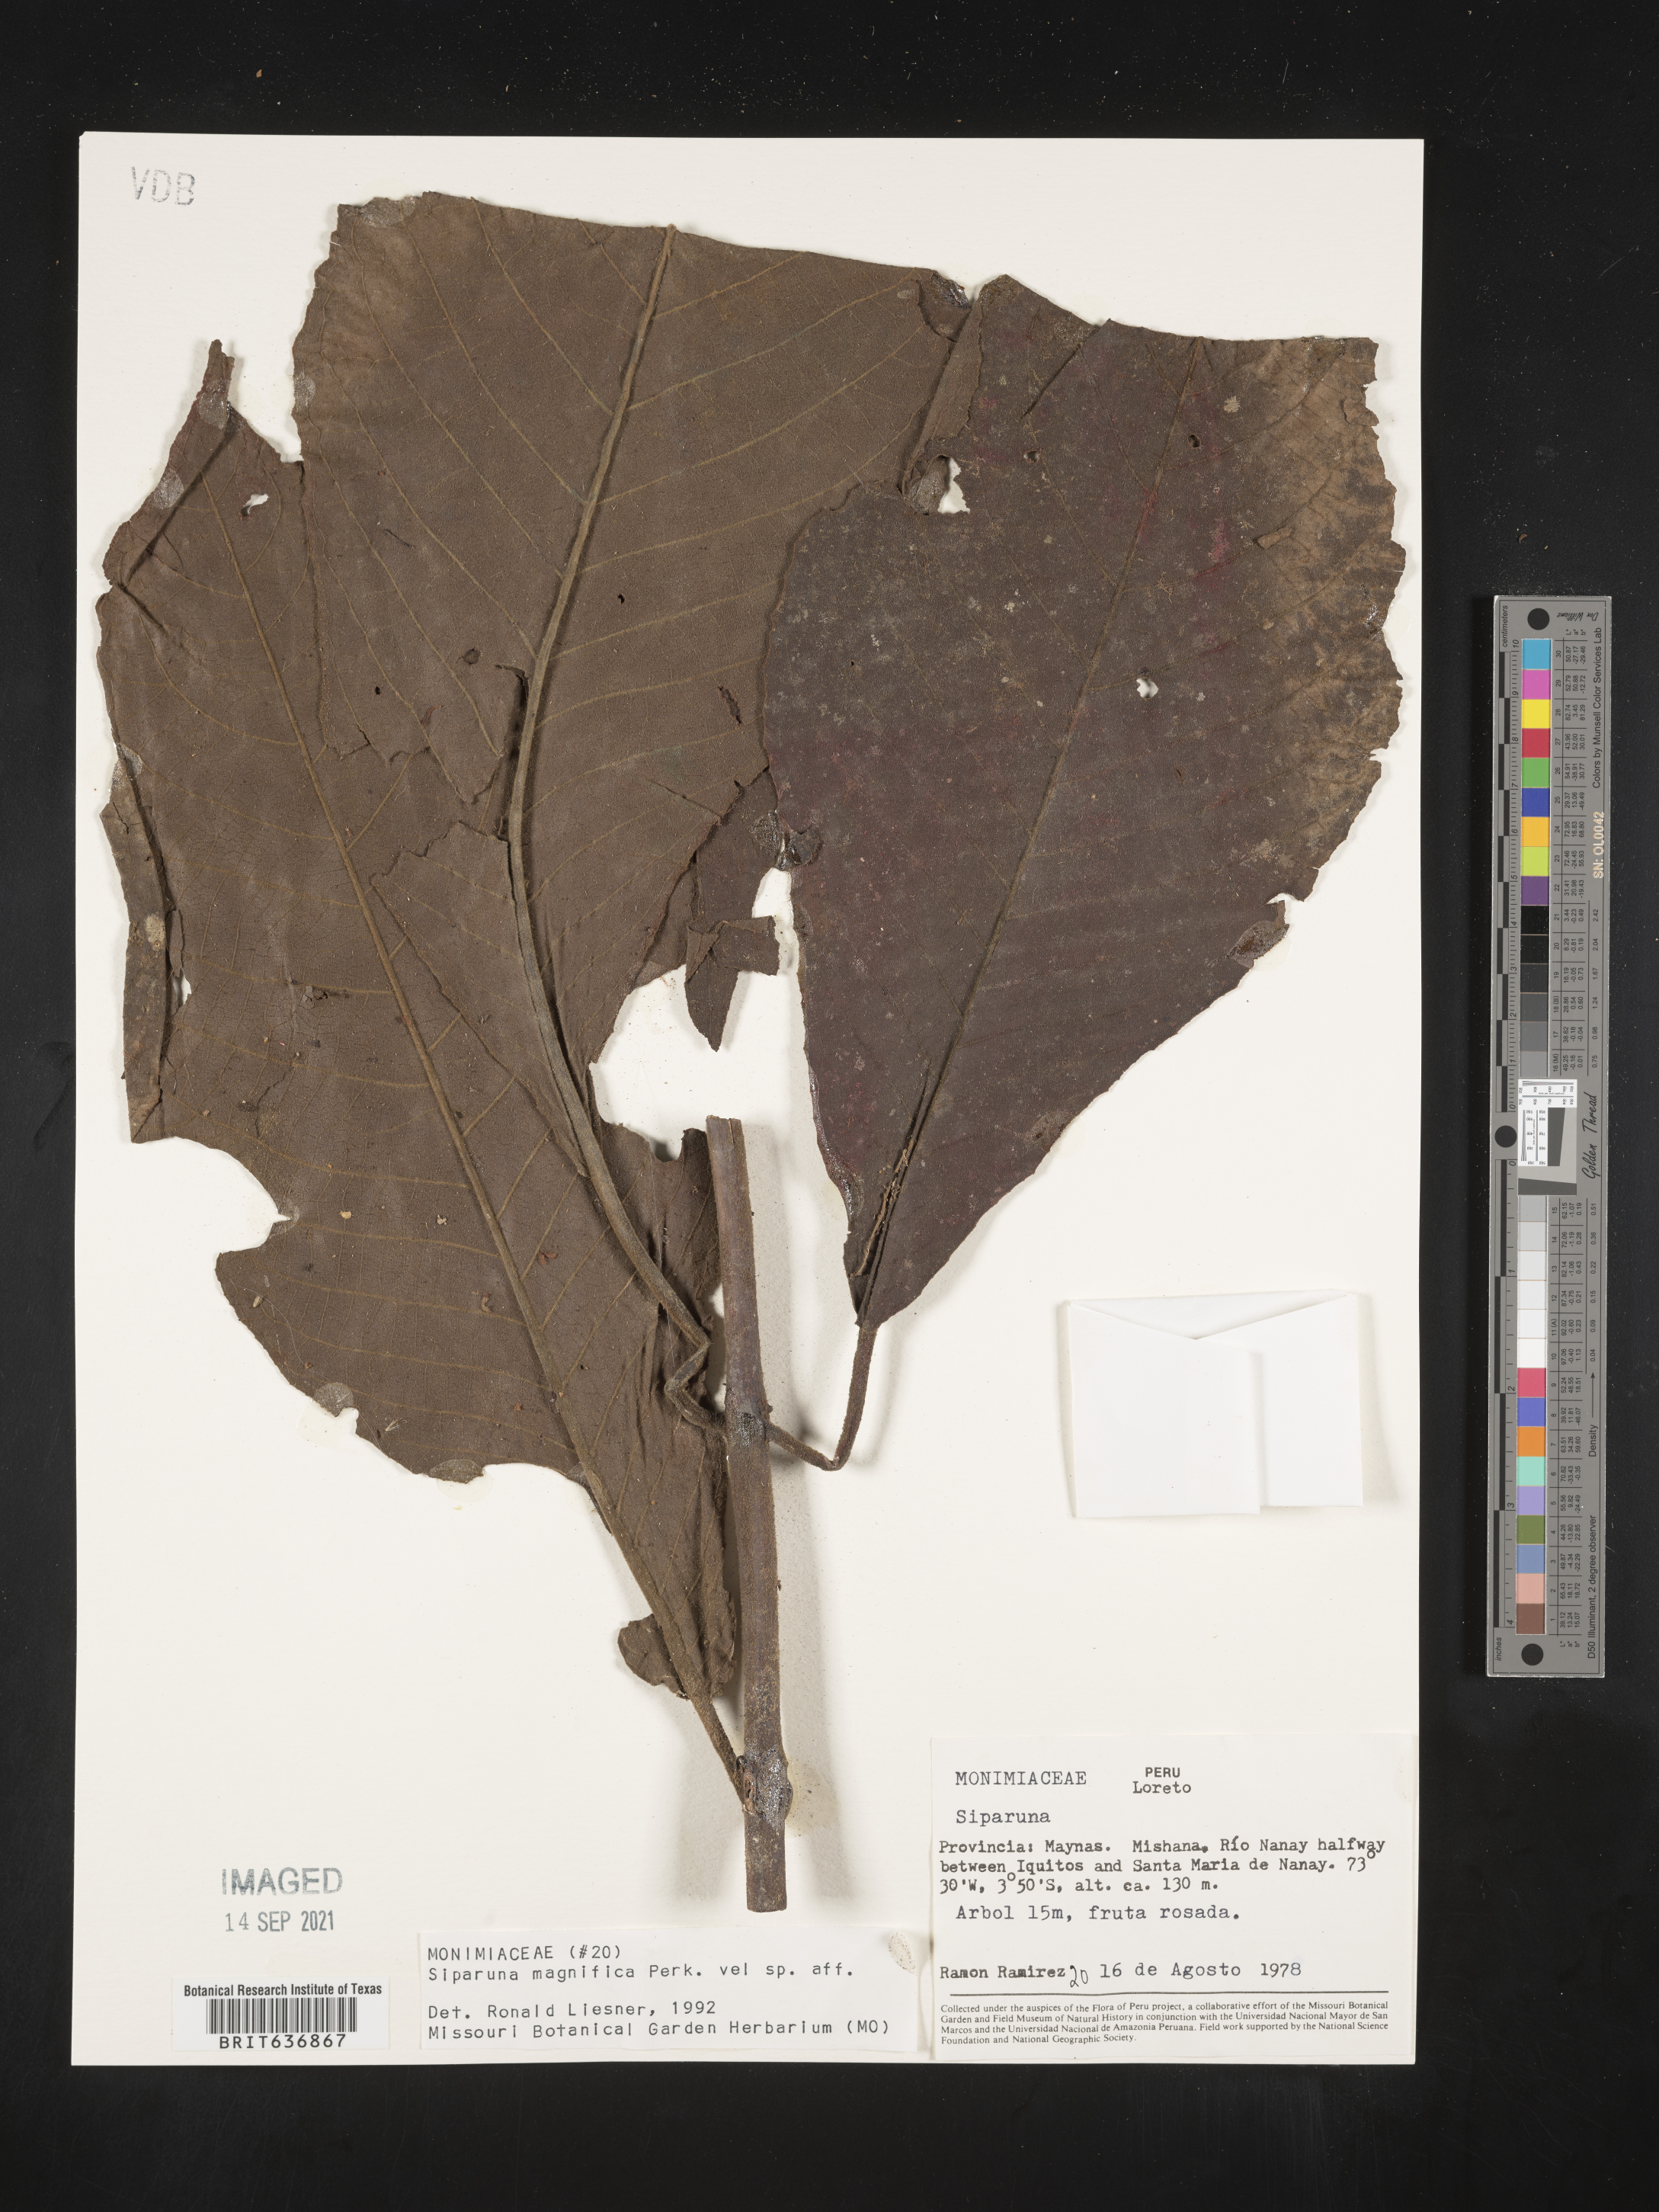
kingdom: Plantae
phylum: Tracheophyta
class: Magnoliopsida
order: Laurales
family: Siparunaceae
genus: Siparuna
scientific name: Siparuna
